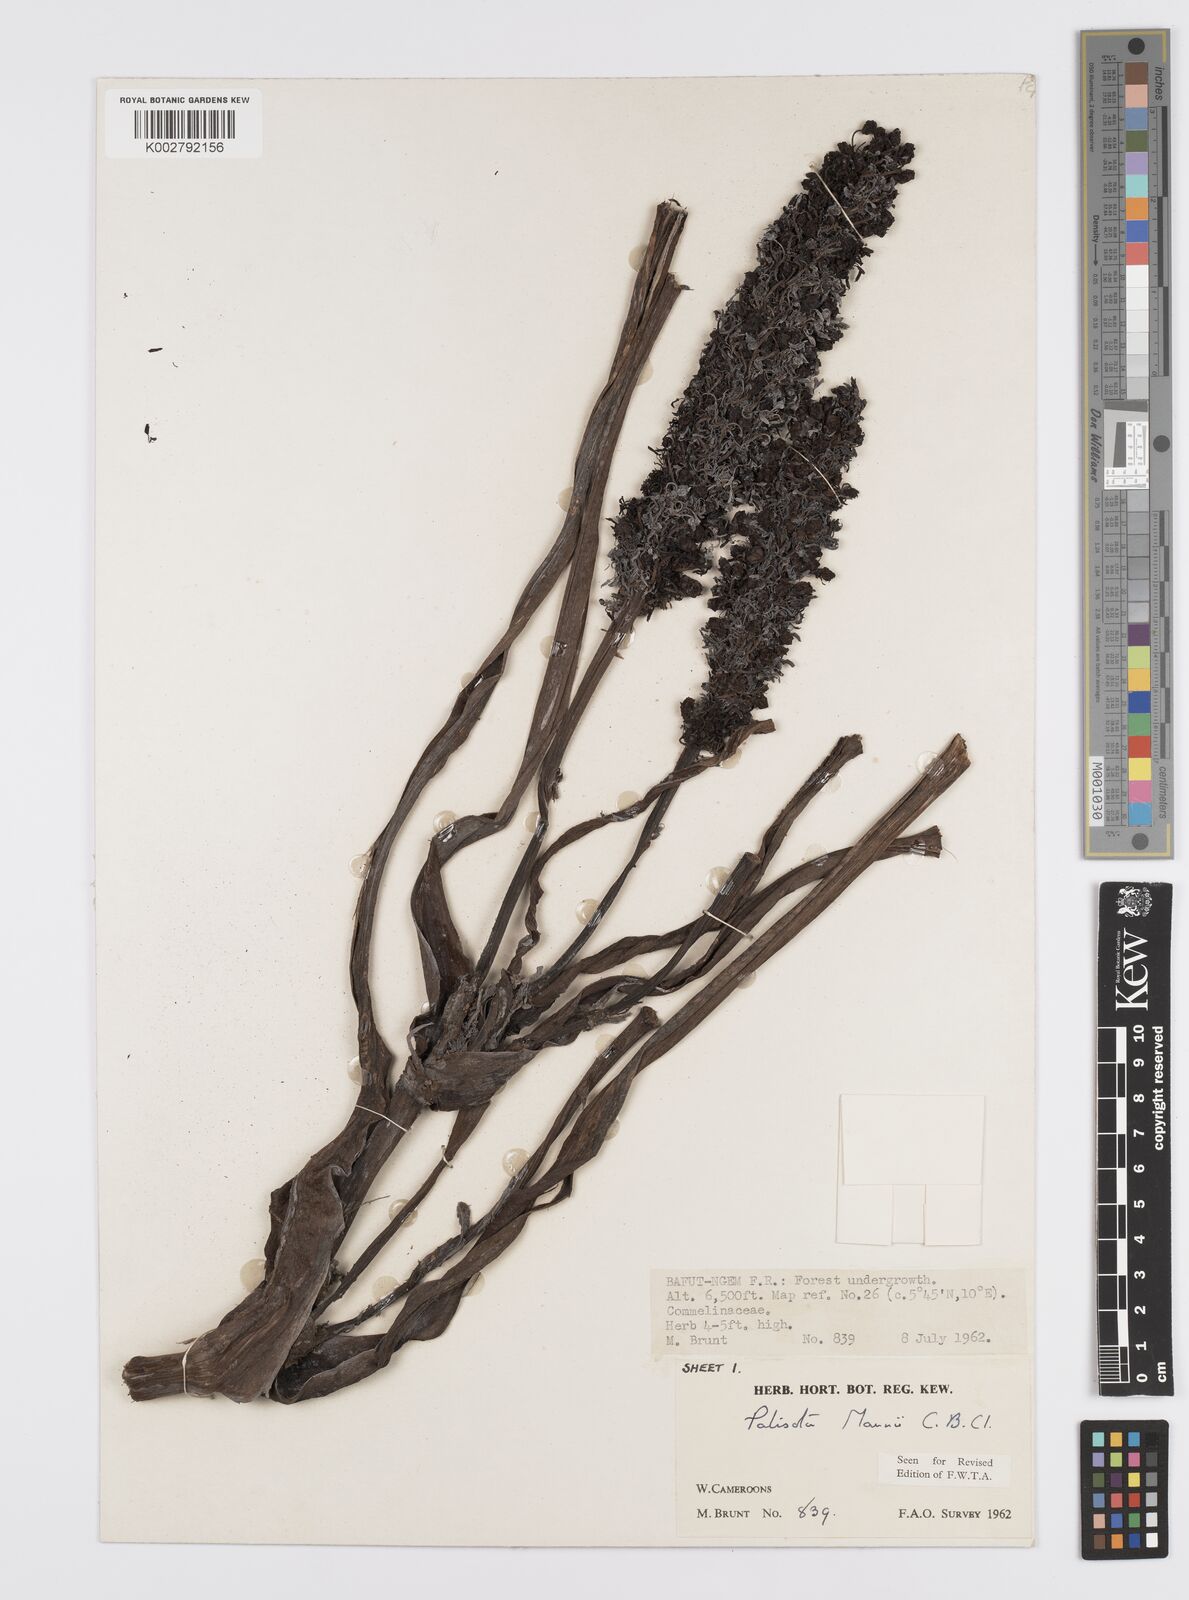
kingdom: Plantae
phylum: Tracheophyta
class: Liliopsida
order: Commelinales
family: Commelinaceae
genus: Palisota
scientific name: Palisota mannii
